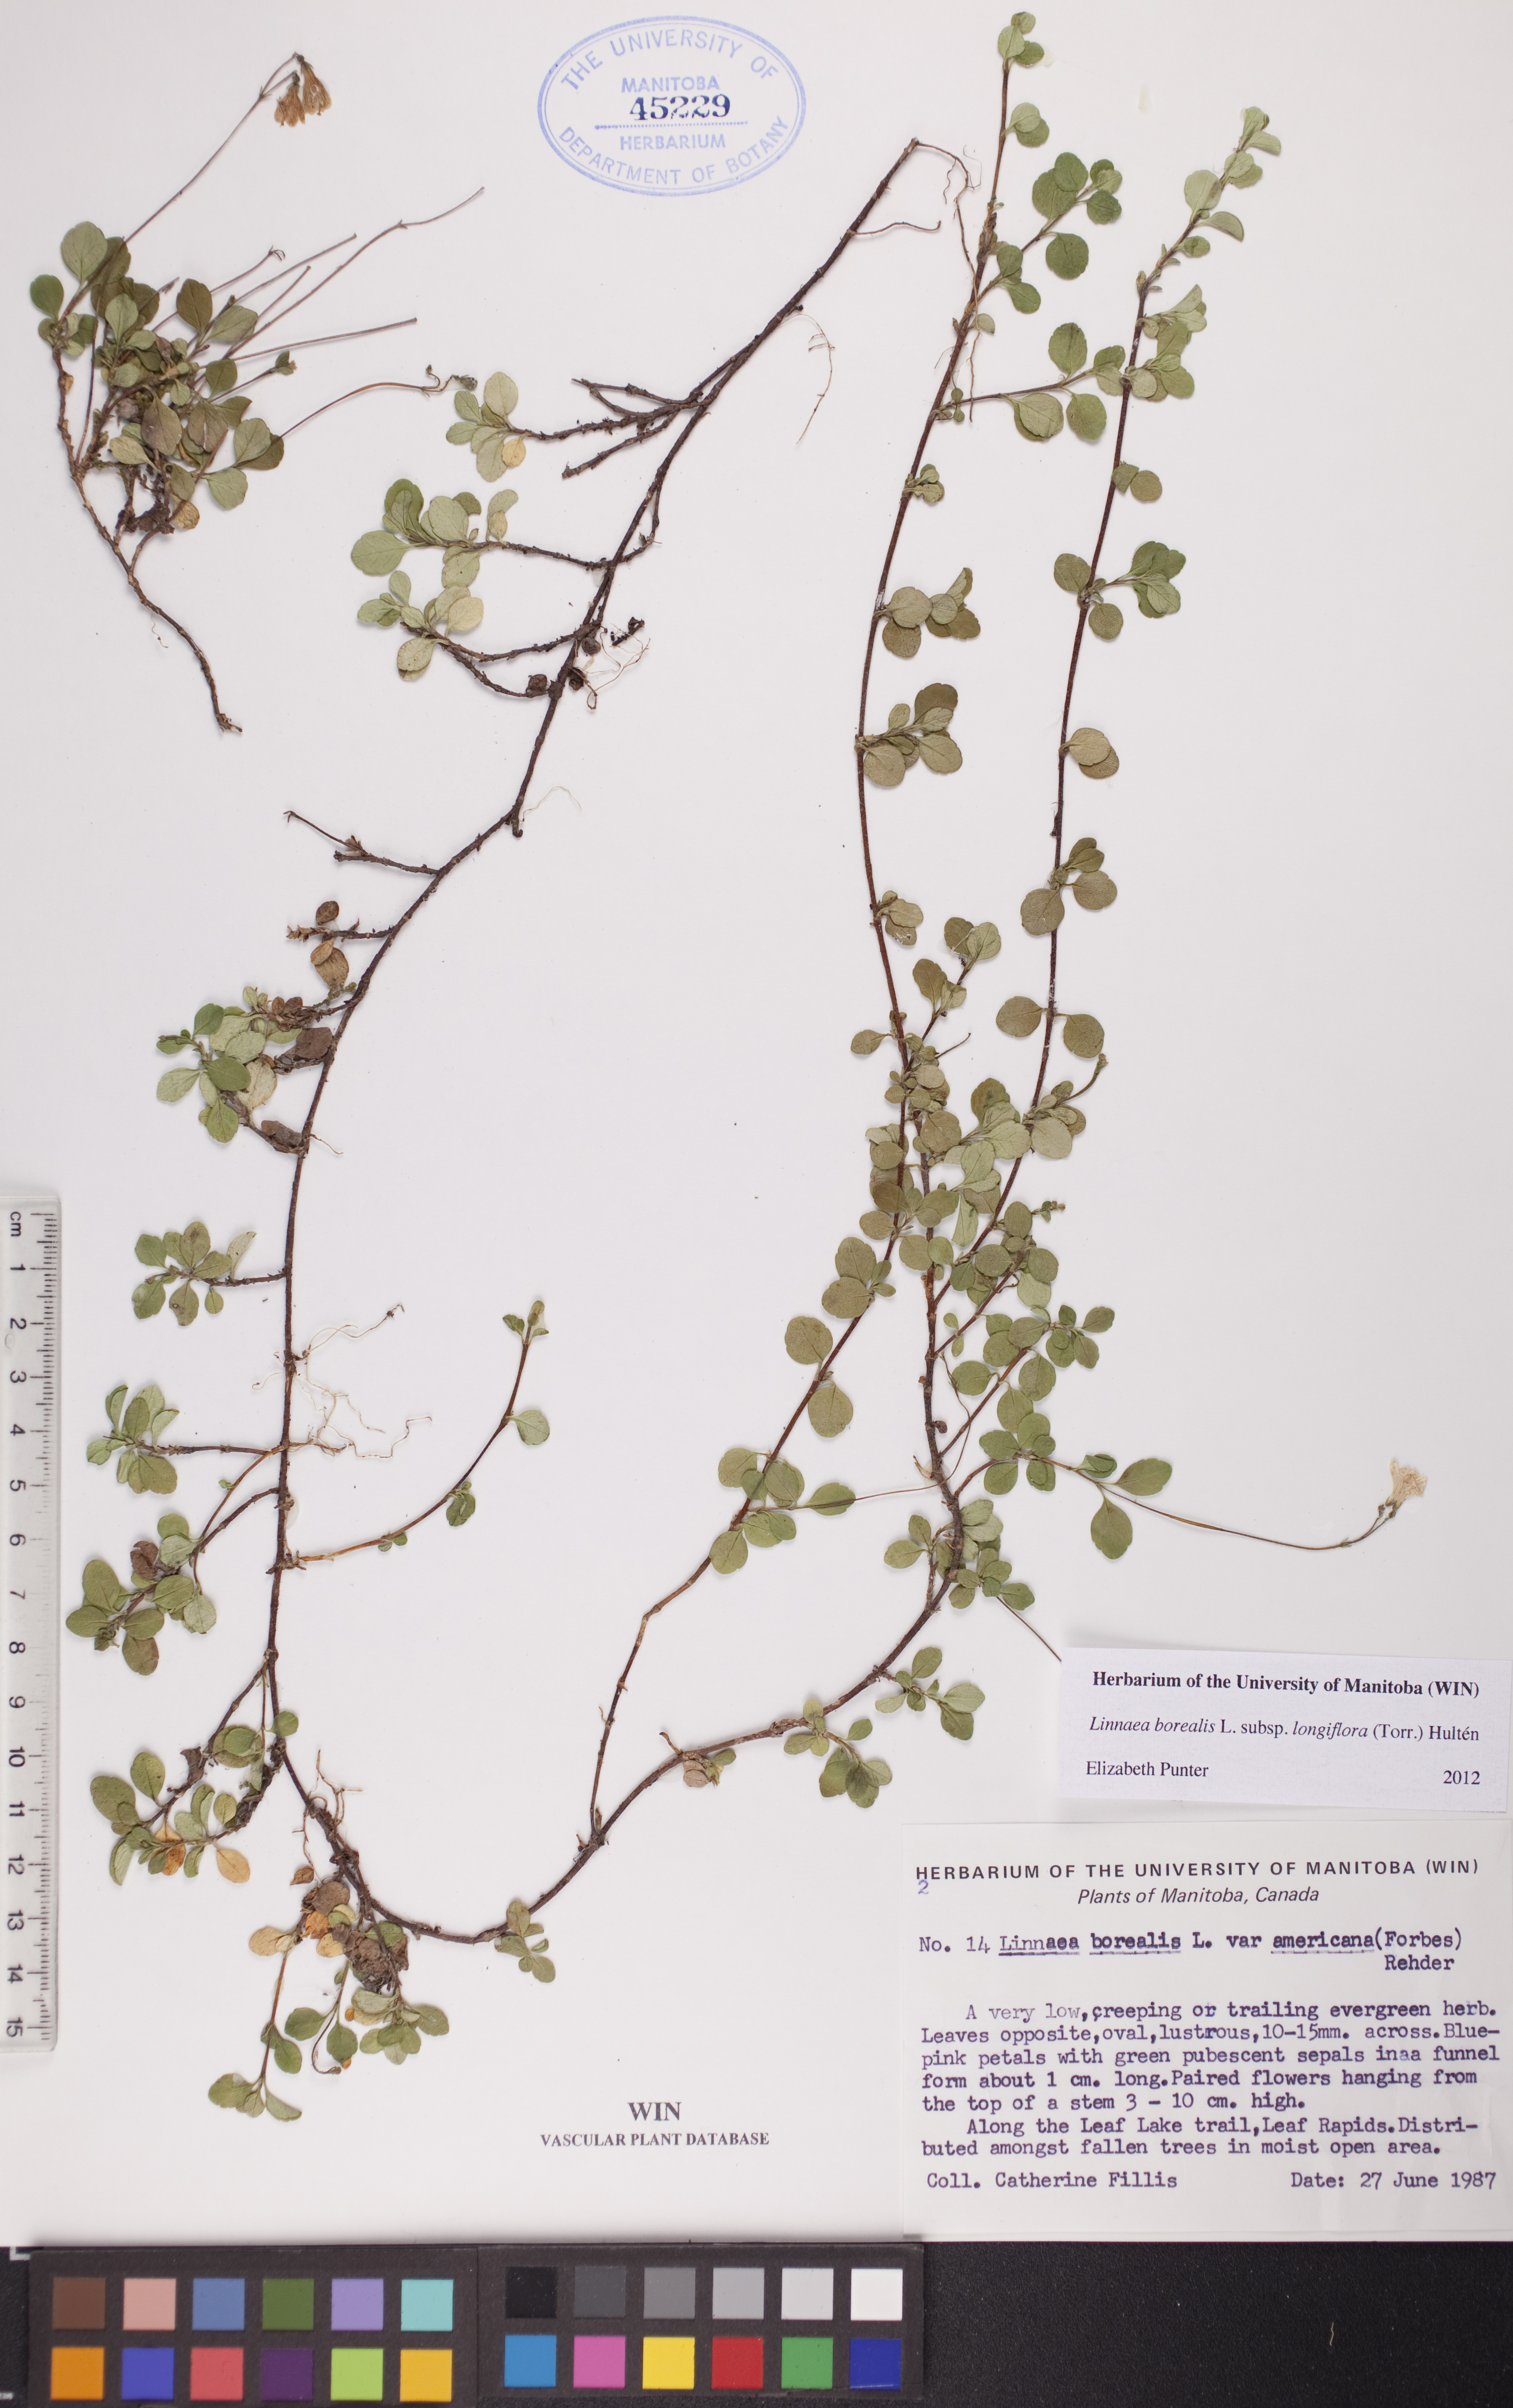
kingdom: Plantae
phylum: Tracheophyta
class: Magnoliopsida
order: Dipsacales
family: Caprifoliaceae
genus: Linnaea
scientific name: Linnaea borealis
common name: Twinflower
